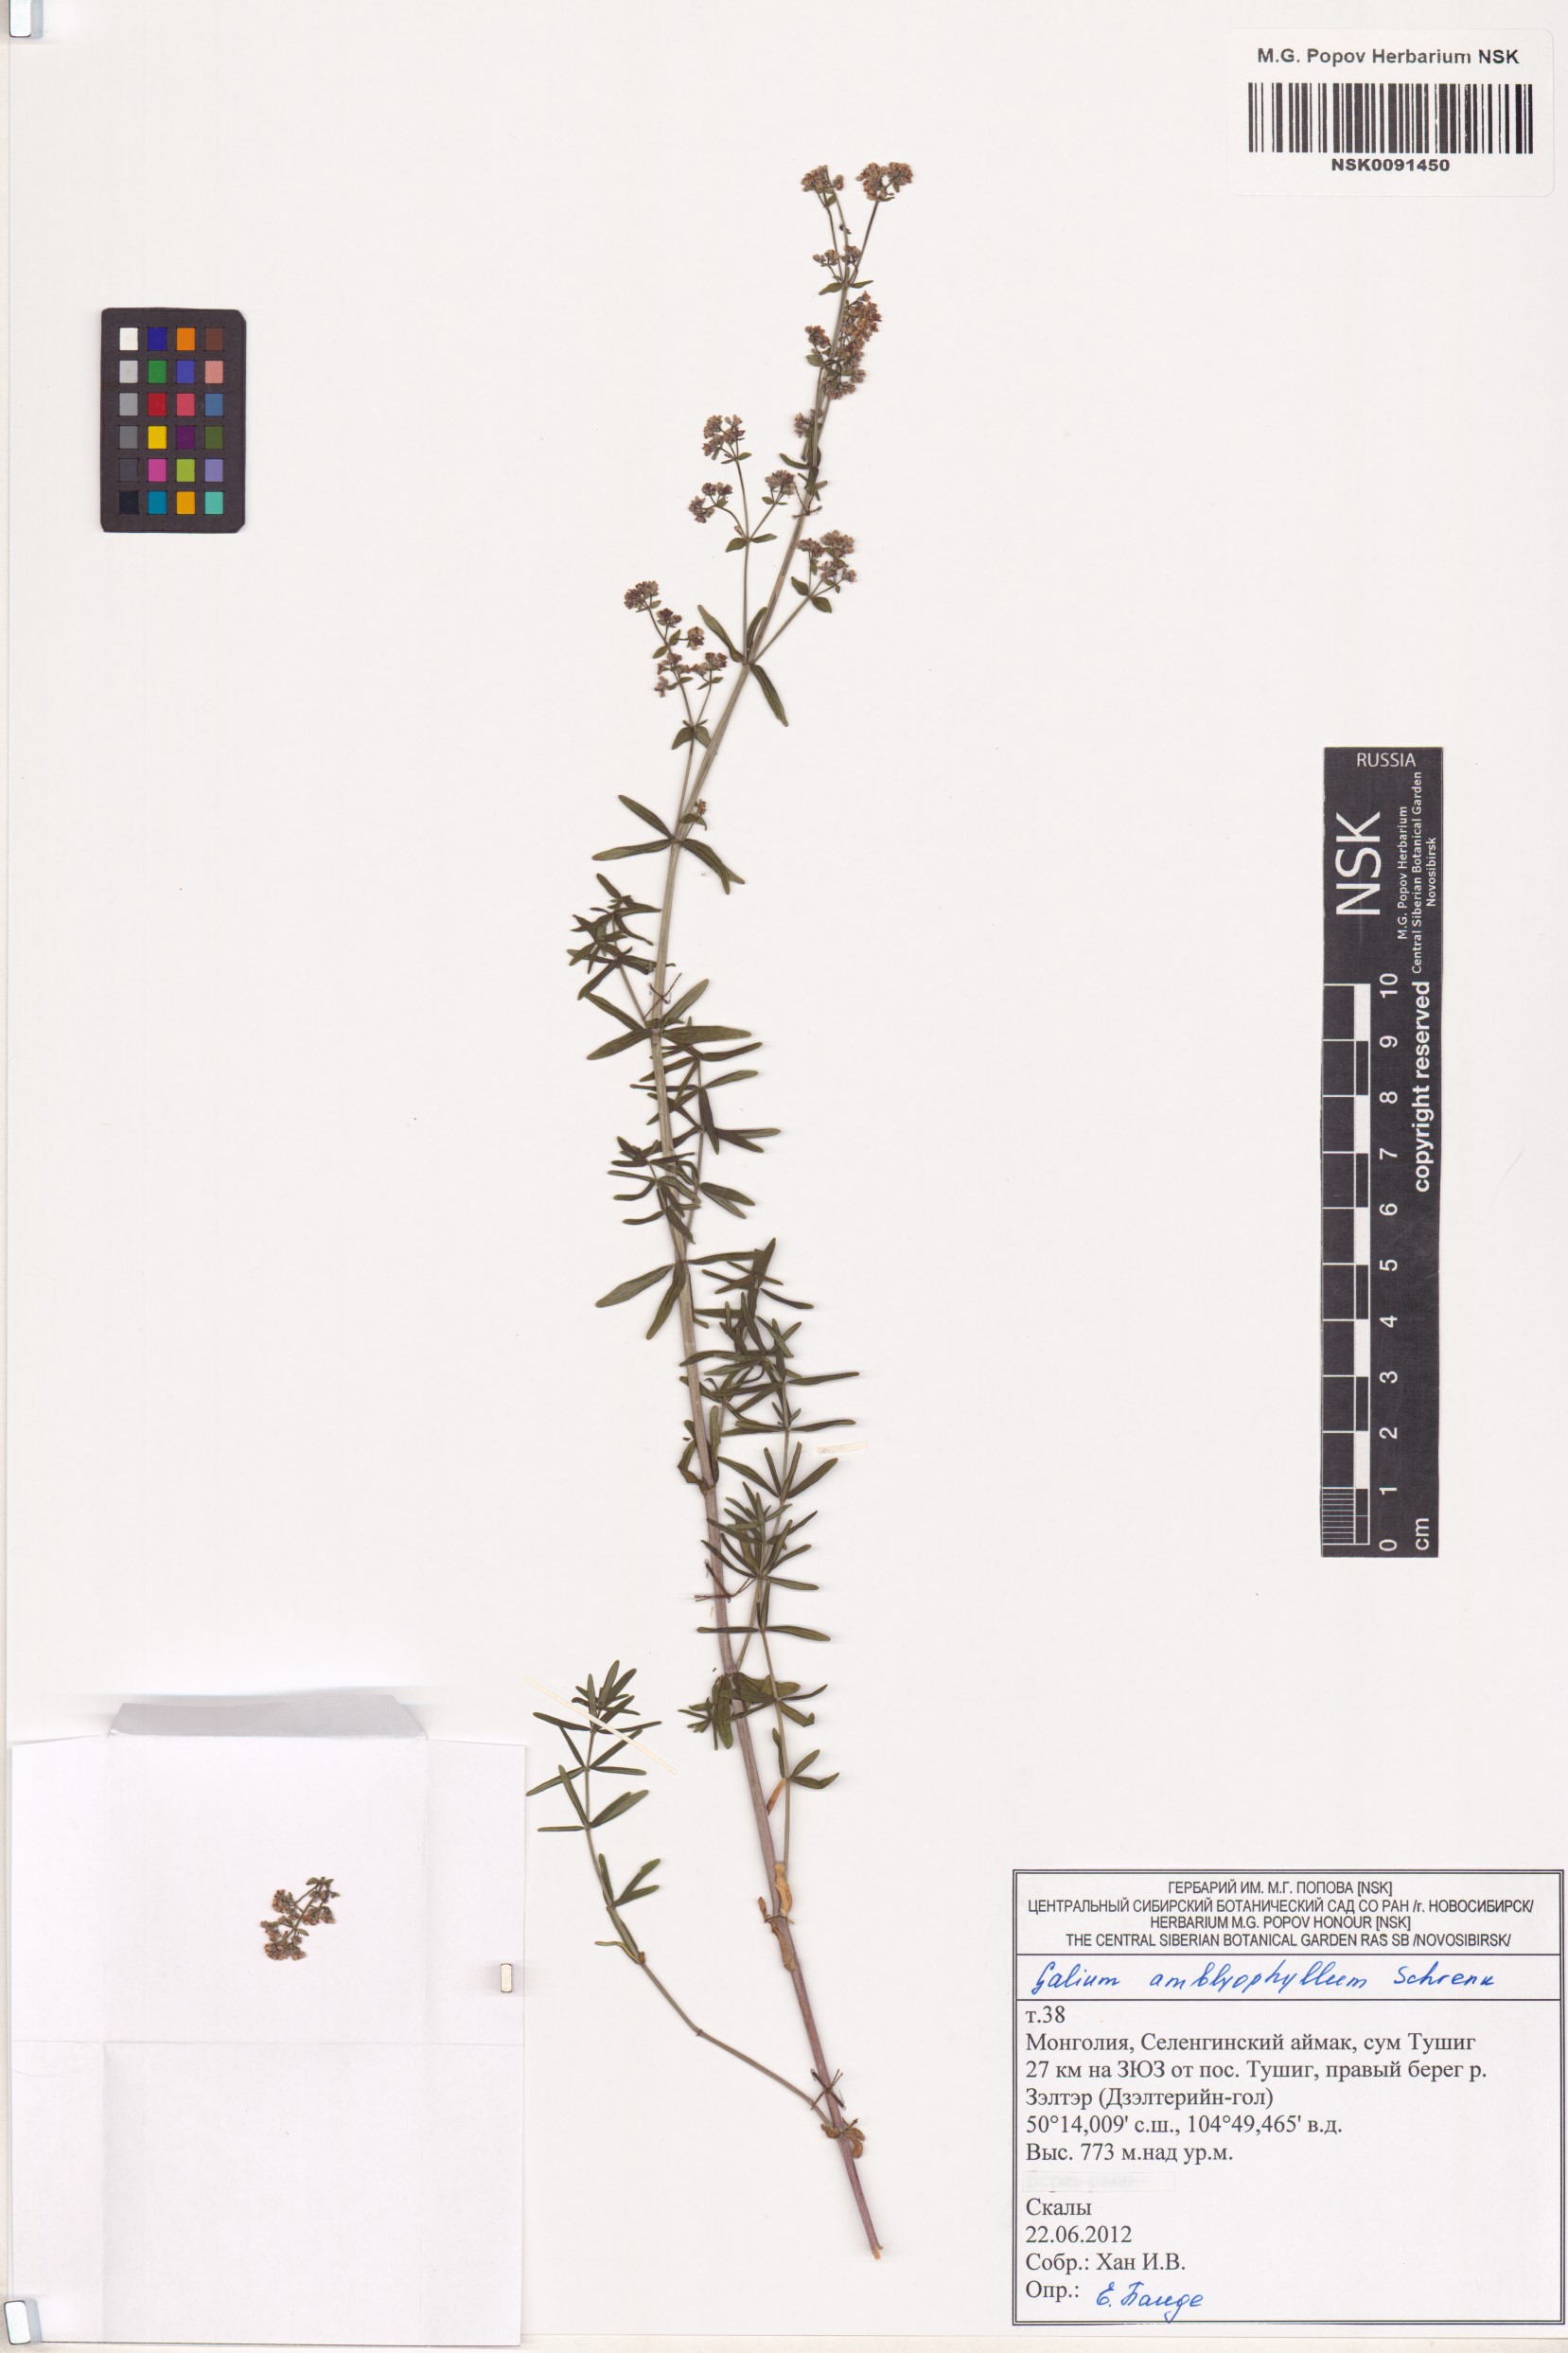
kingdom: Plantae
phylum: Tracheophyta
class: Magnoliopsida
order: Gentianales
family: Rubiaceae
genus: Galium
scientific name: Galium amblyophyllum
